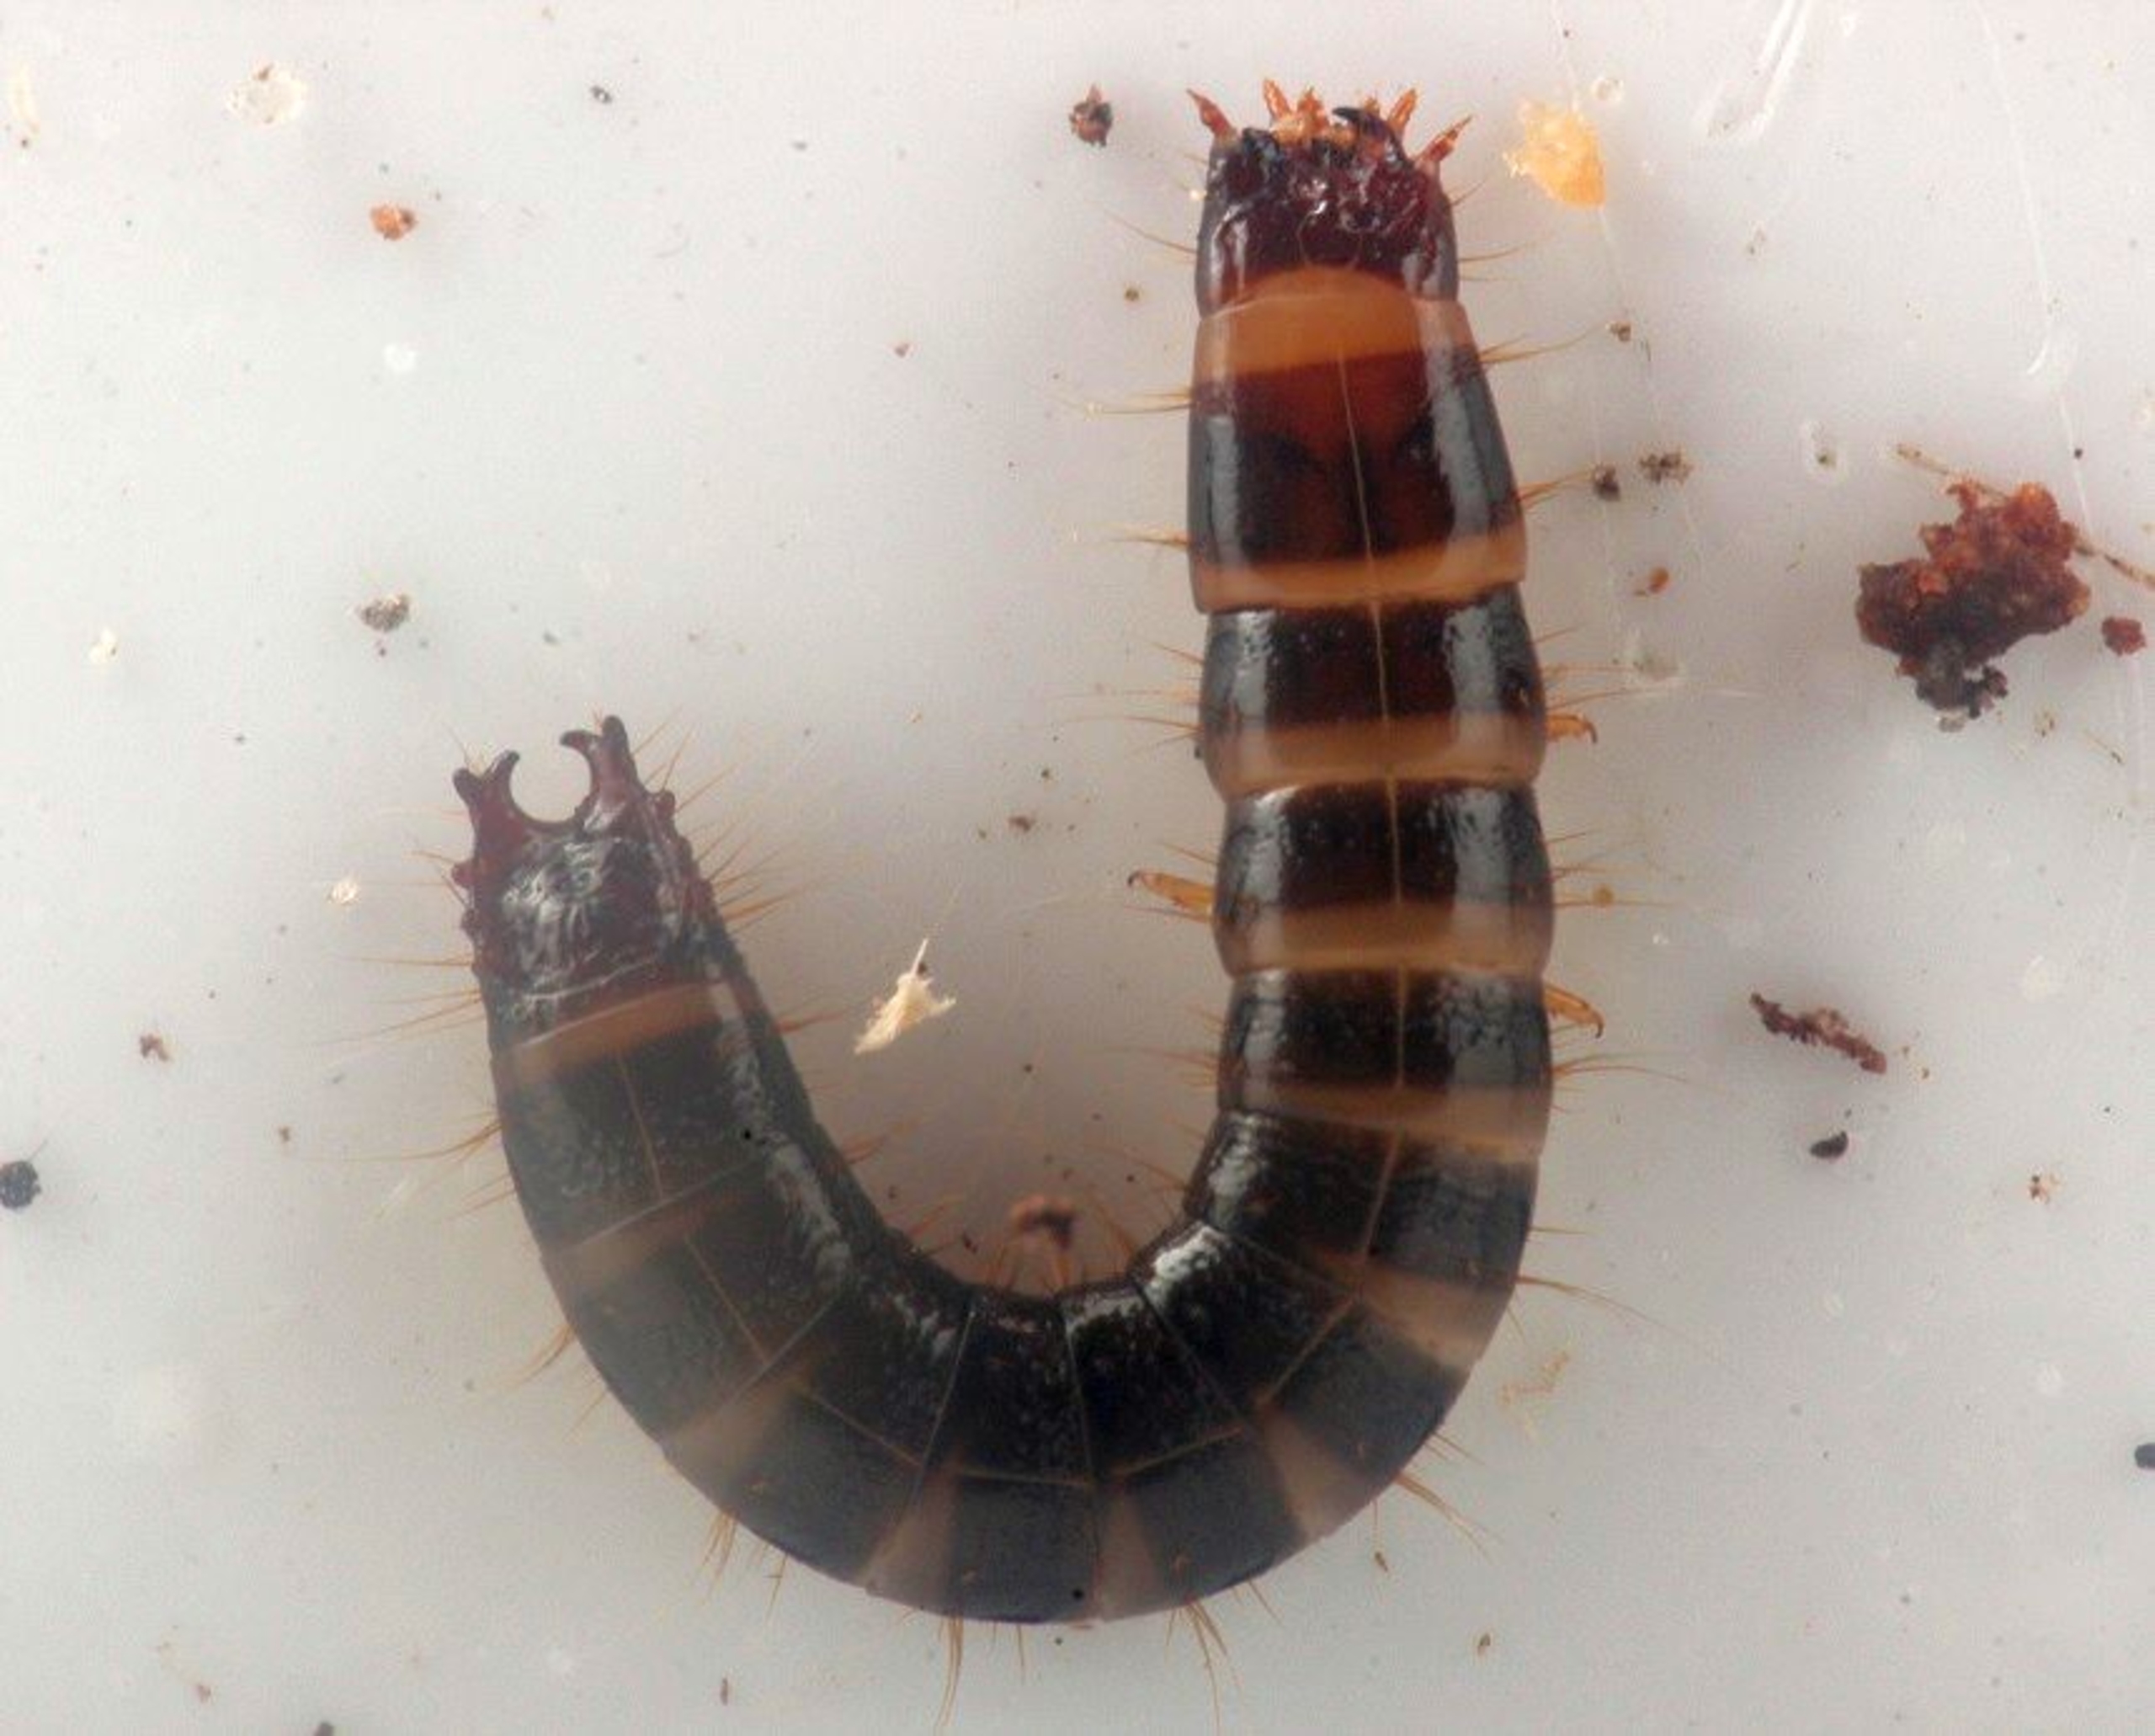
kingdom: Animalia
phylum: Arthropoda
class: Insecta
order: Coleoptera
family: Elateridae
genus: Stenagostus
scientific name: Stenagostus rhombeus
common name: Rhombetræsmælder
